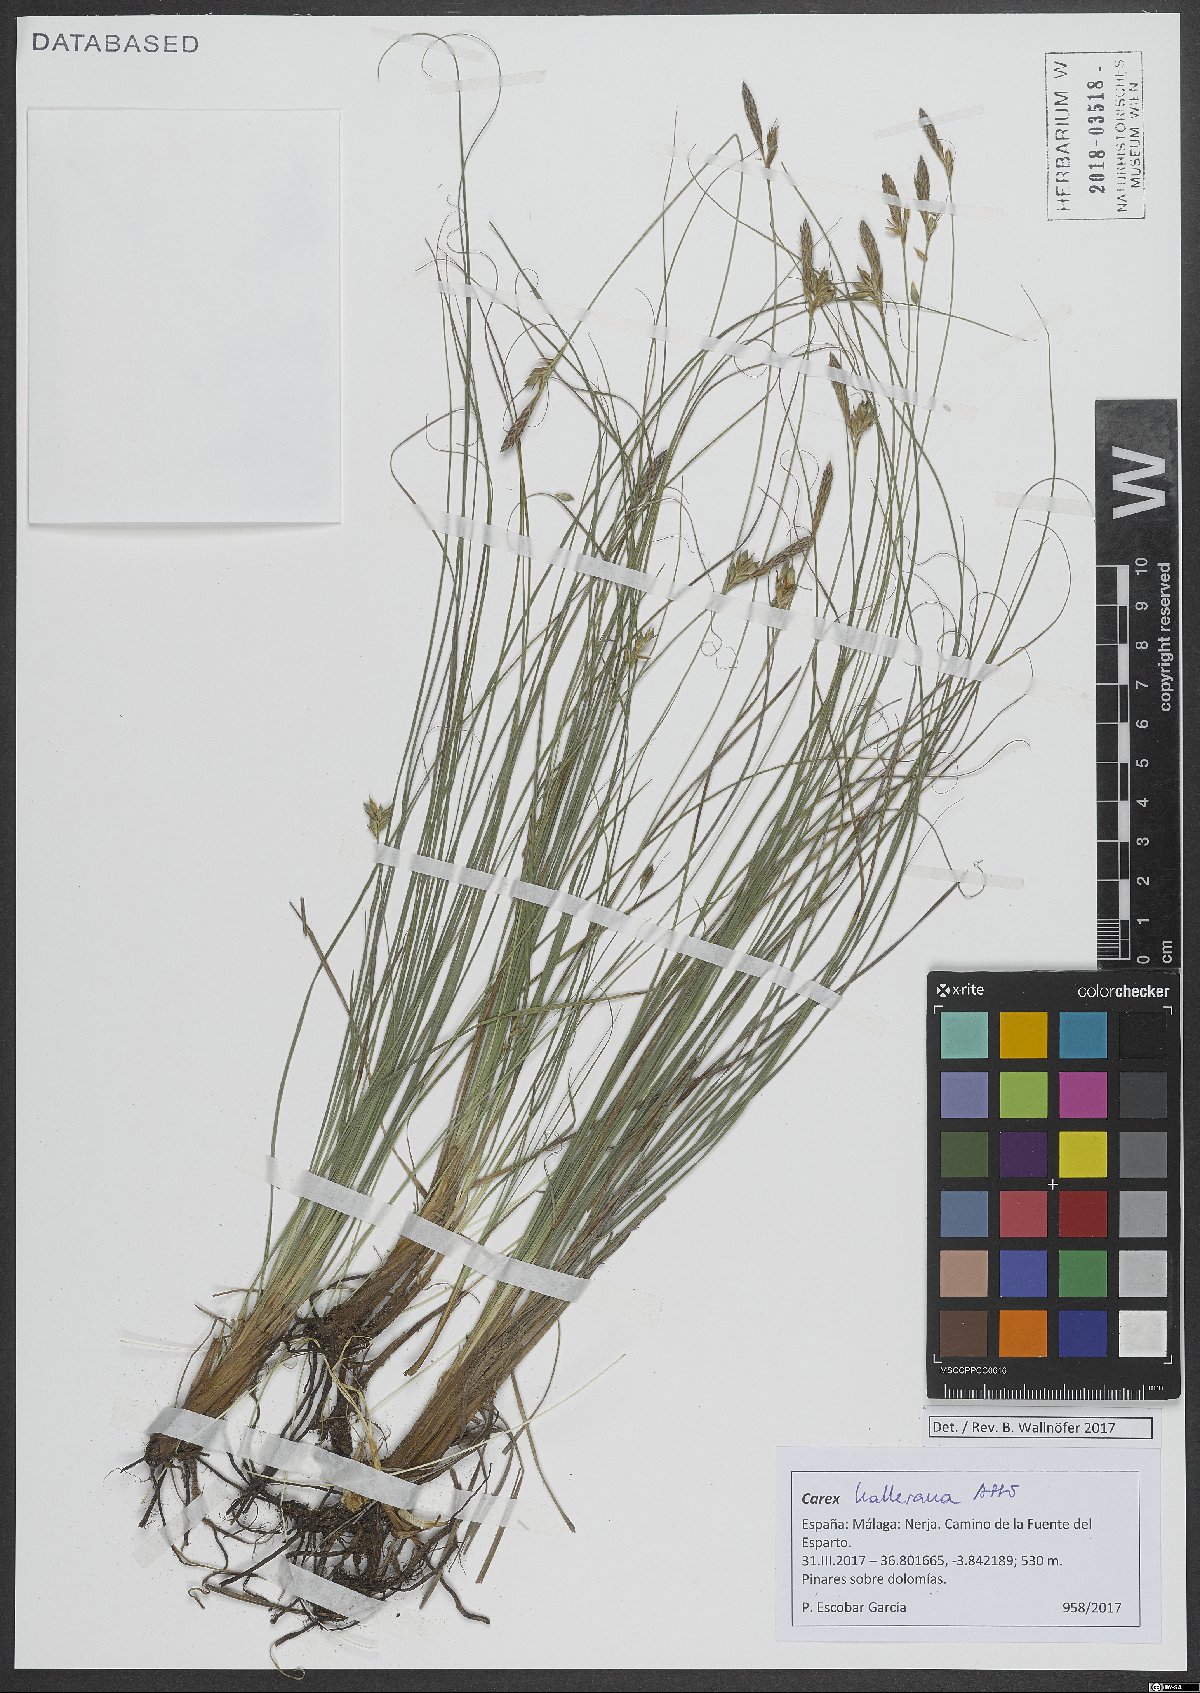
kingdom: Plantae
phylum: Tracheophyta
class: Liliopsida
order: Poales
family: Cyperaceae
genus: Carex
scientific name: Carex halleriana
